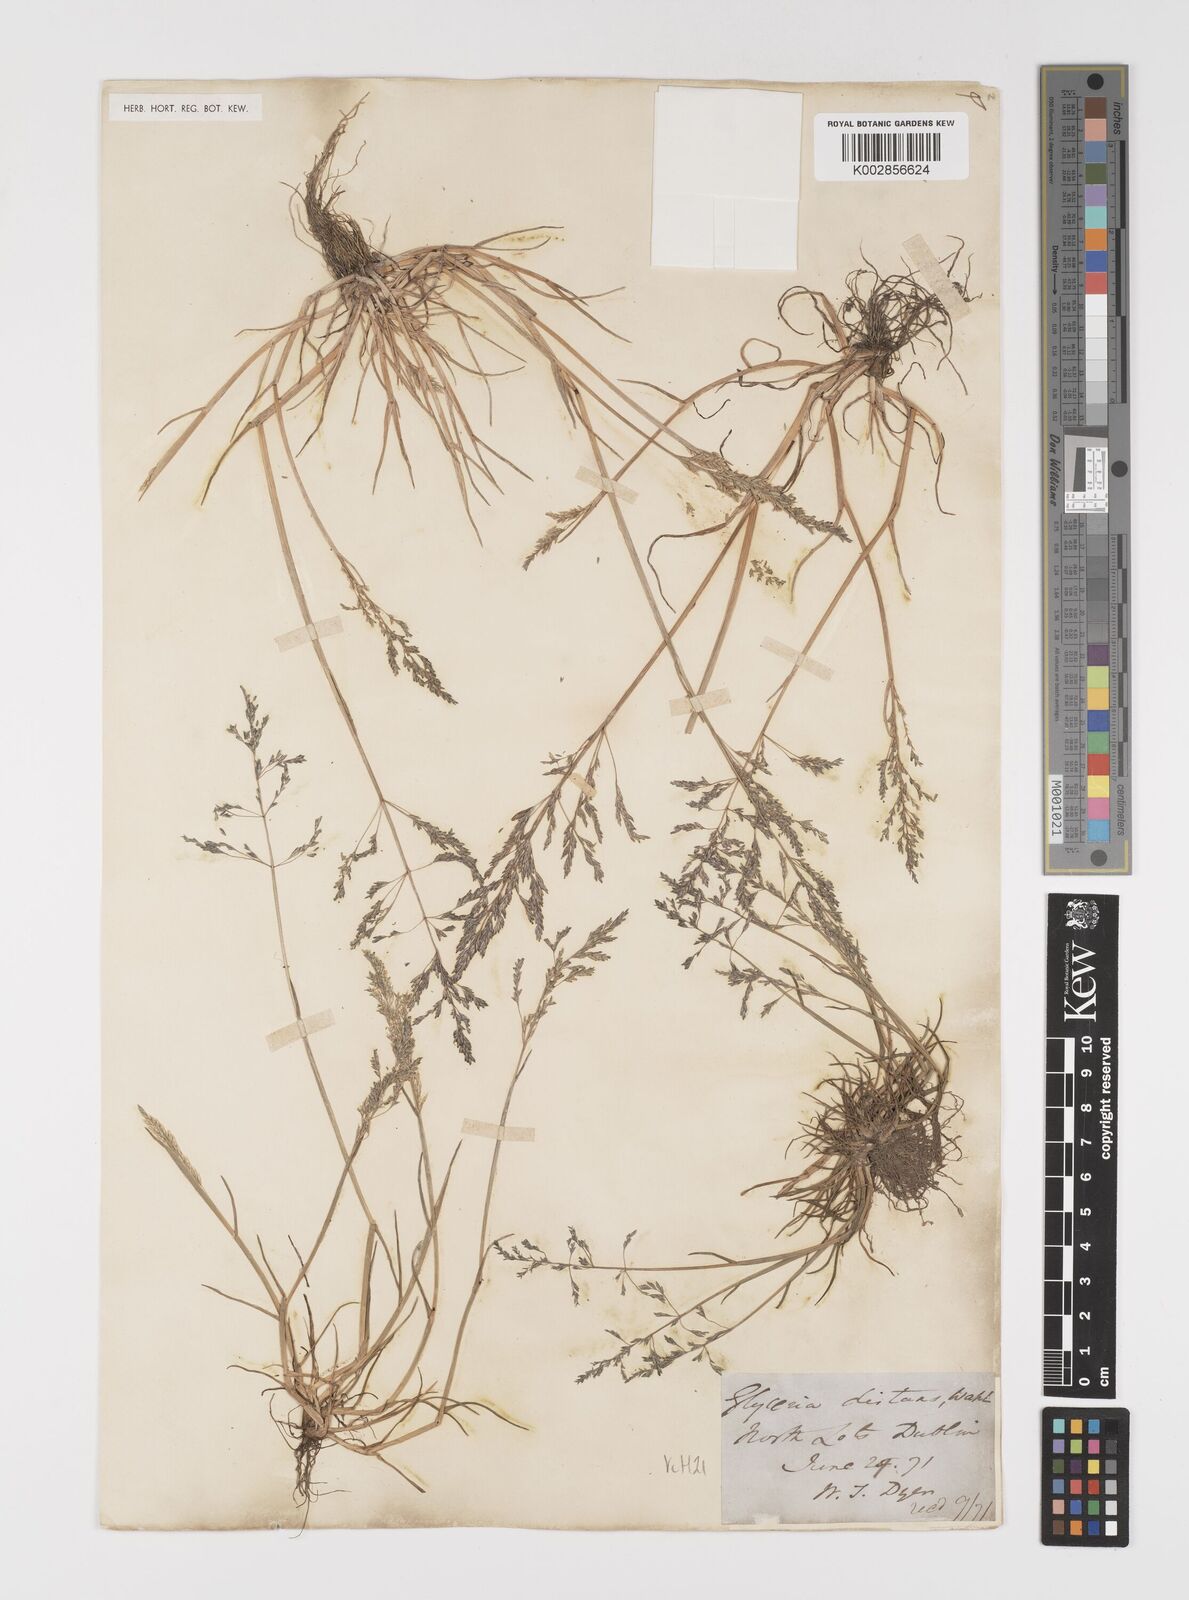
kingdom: Plantae
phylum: Tracheophyta
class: Liliopsida
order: Poales
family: Poaceae
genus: Puccinellia
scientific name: Puccinellia distans
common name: Weeping alkaligrass
